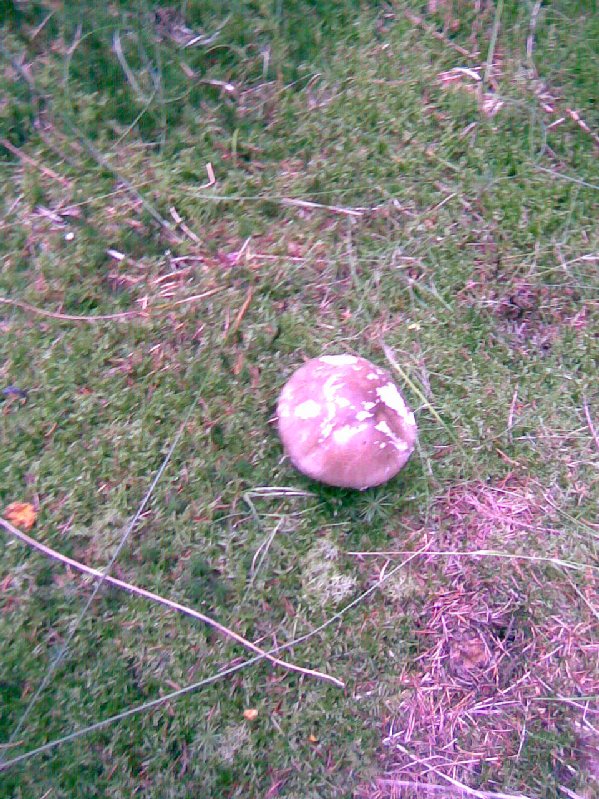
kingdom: Fungi
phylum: Basidiomycota
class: Agaricomycetes
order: Agaricales
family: Amanitaceae
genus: Amanita
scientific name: Amanita
